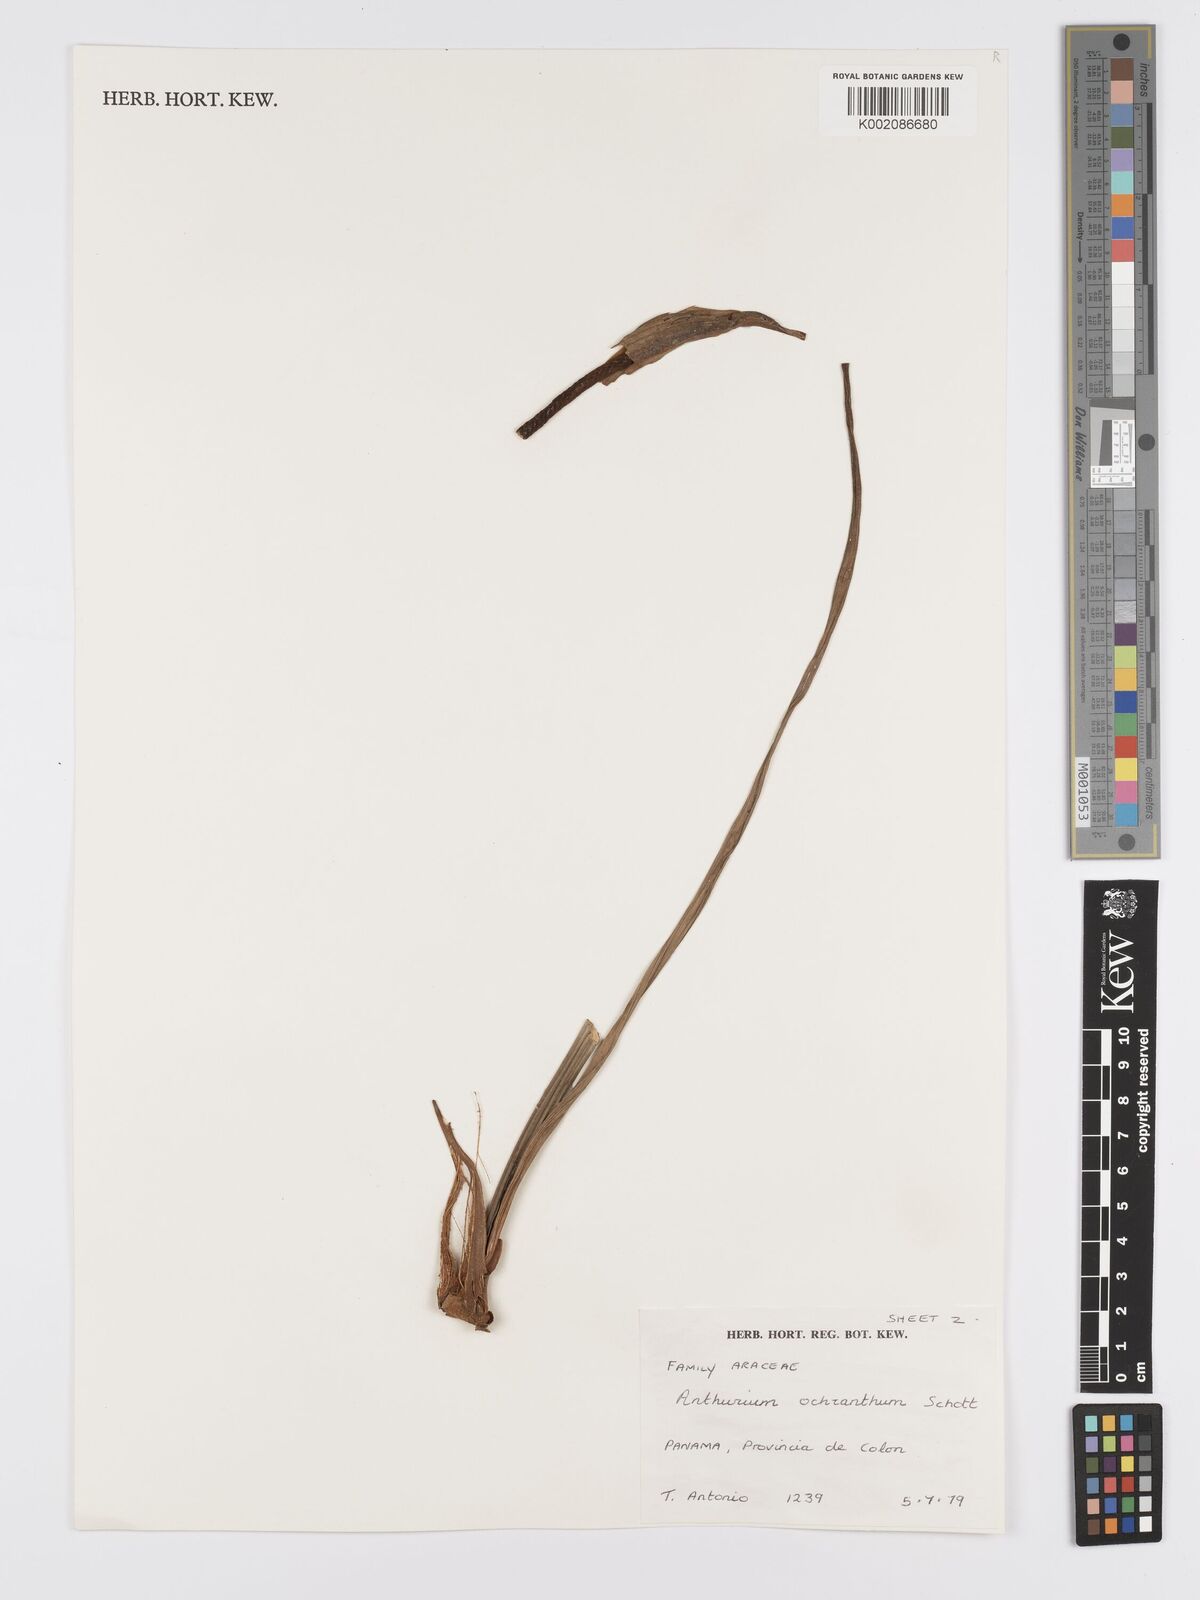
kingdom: Plantae
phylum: Tracheophyta
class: Liliopsida
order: Alismatales
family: Araceae
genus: Anthurium
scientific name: Anthurium ochranthum
